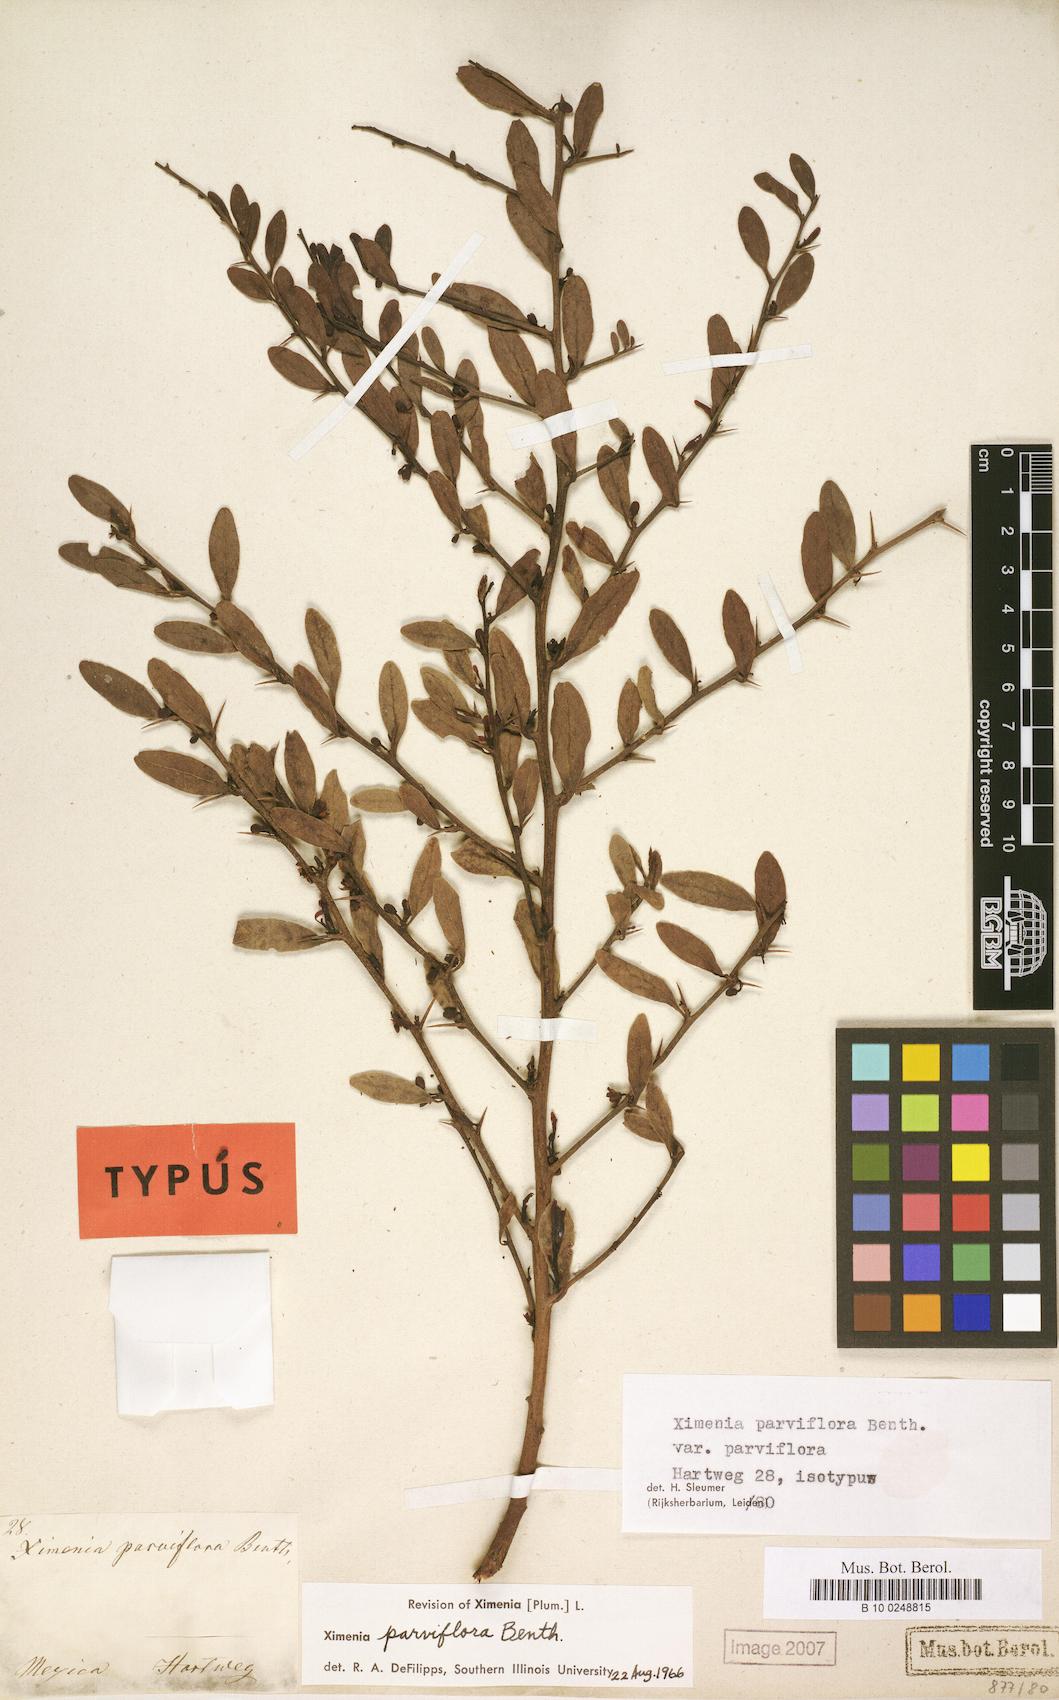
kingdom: Plantae
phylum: Tracheophyta
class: Magnoliopsida
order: Santalales
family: Ximeniaceae
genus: Ximenia
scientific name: Ximenia parviflora
